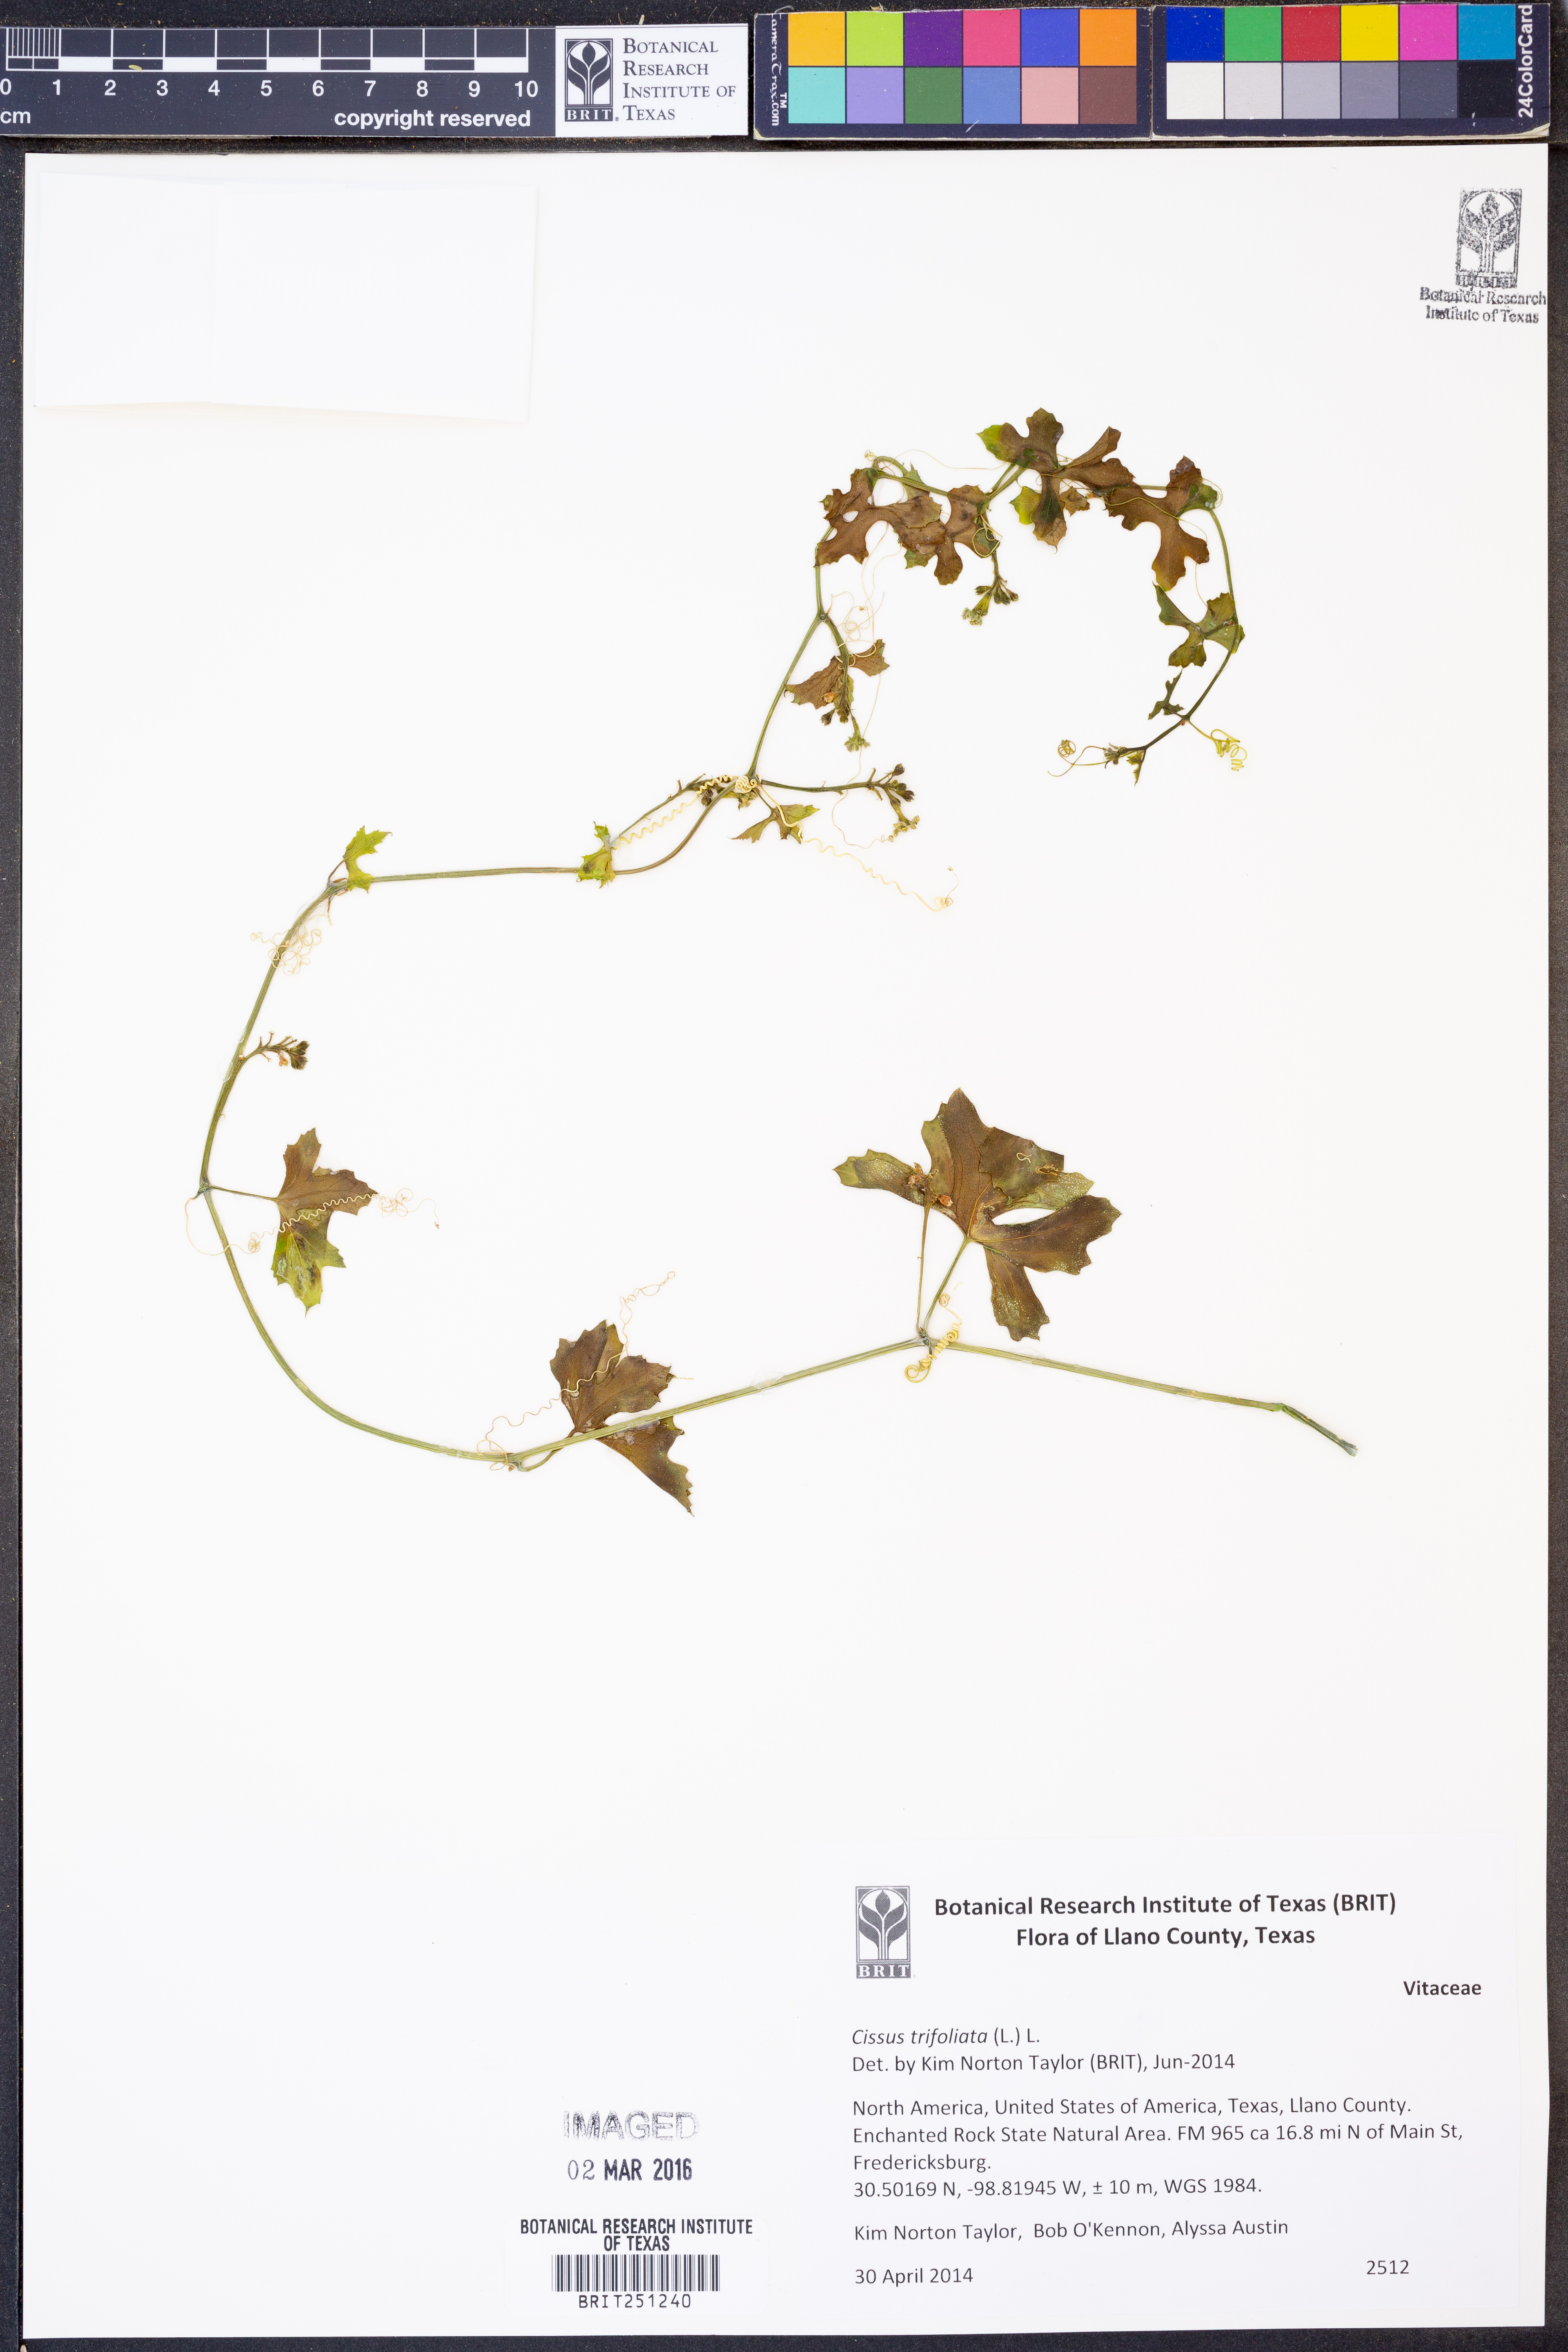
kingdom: Plantae
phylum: Tracheophyta
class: Magnoliopsida
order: Vitales
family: Vitaceae
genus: Cissus
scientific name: Cissus trifoliata
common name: Vine-sorrel
